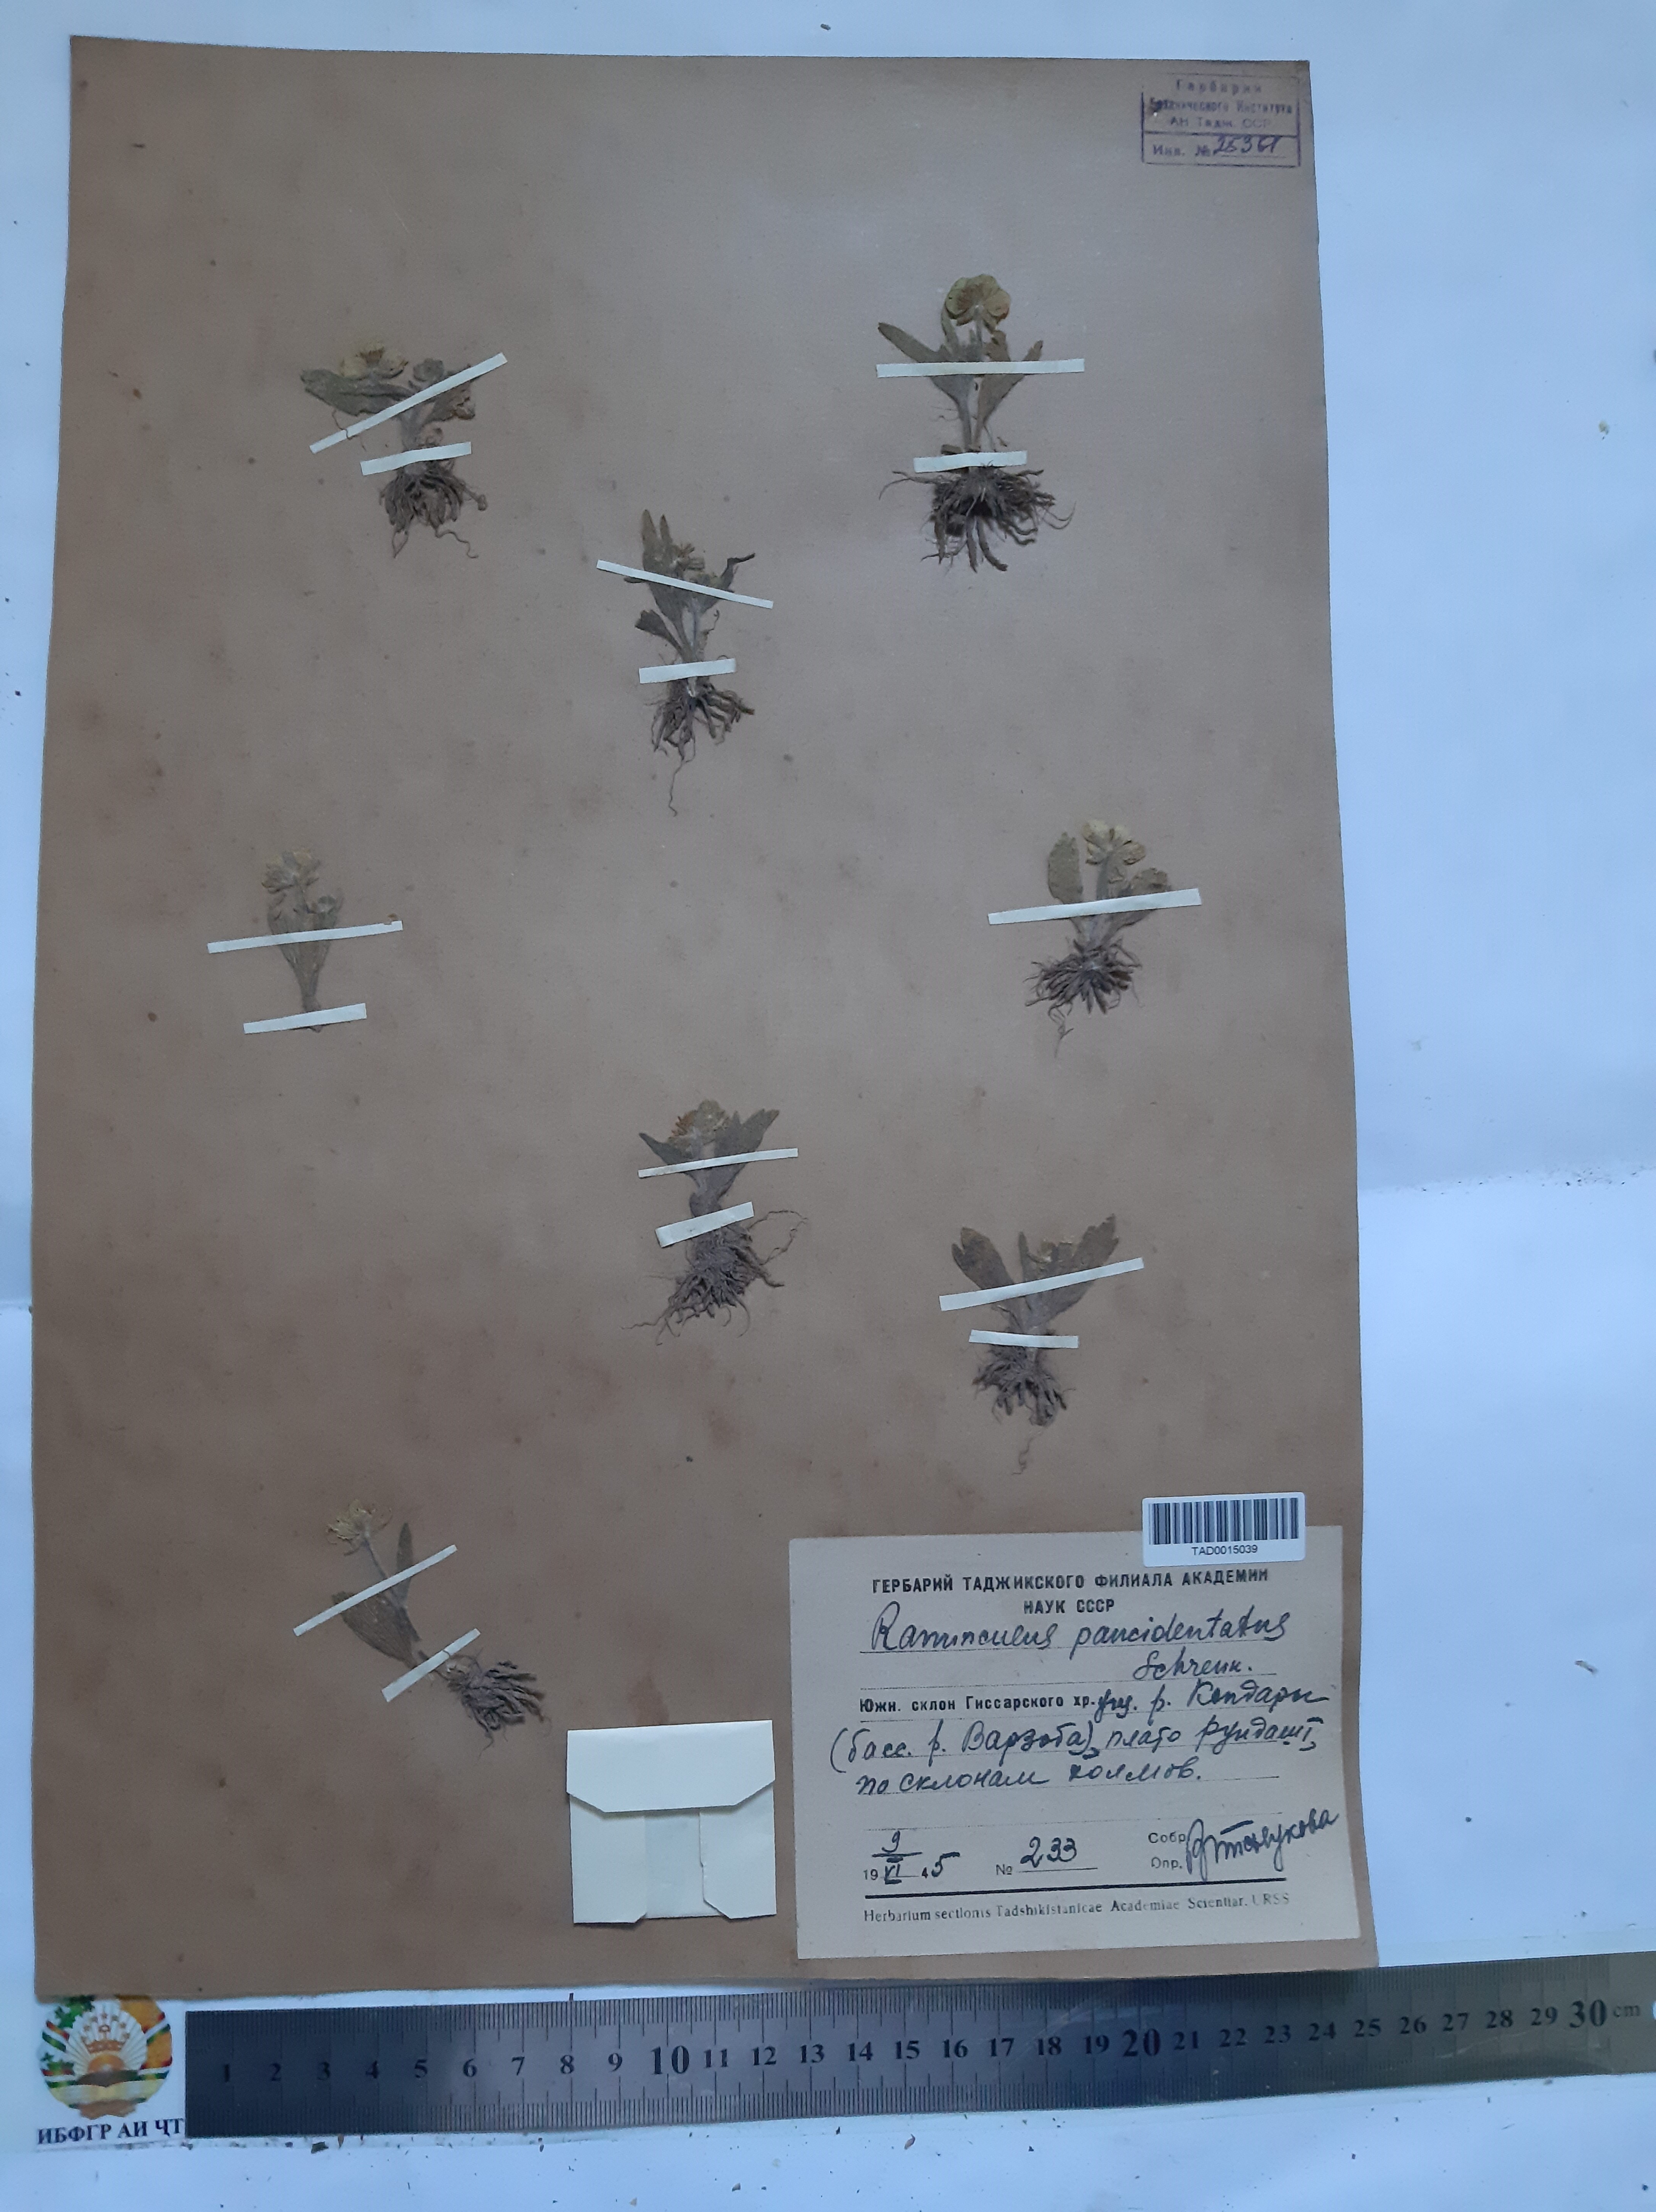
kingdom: Plantae
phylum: Tracheophyta
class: Magnoliopsida
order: Ranunculales
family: Ranunculaceae
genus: Ranunculus
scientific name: Ranunculus paucidentatus
